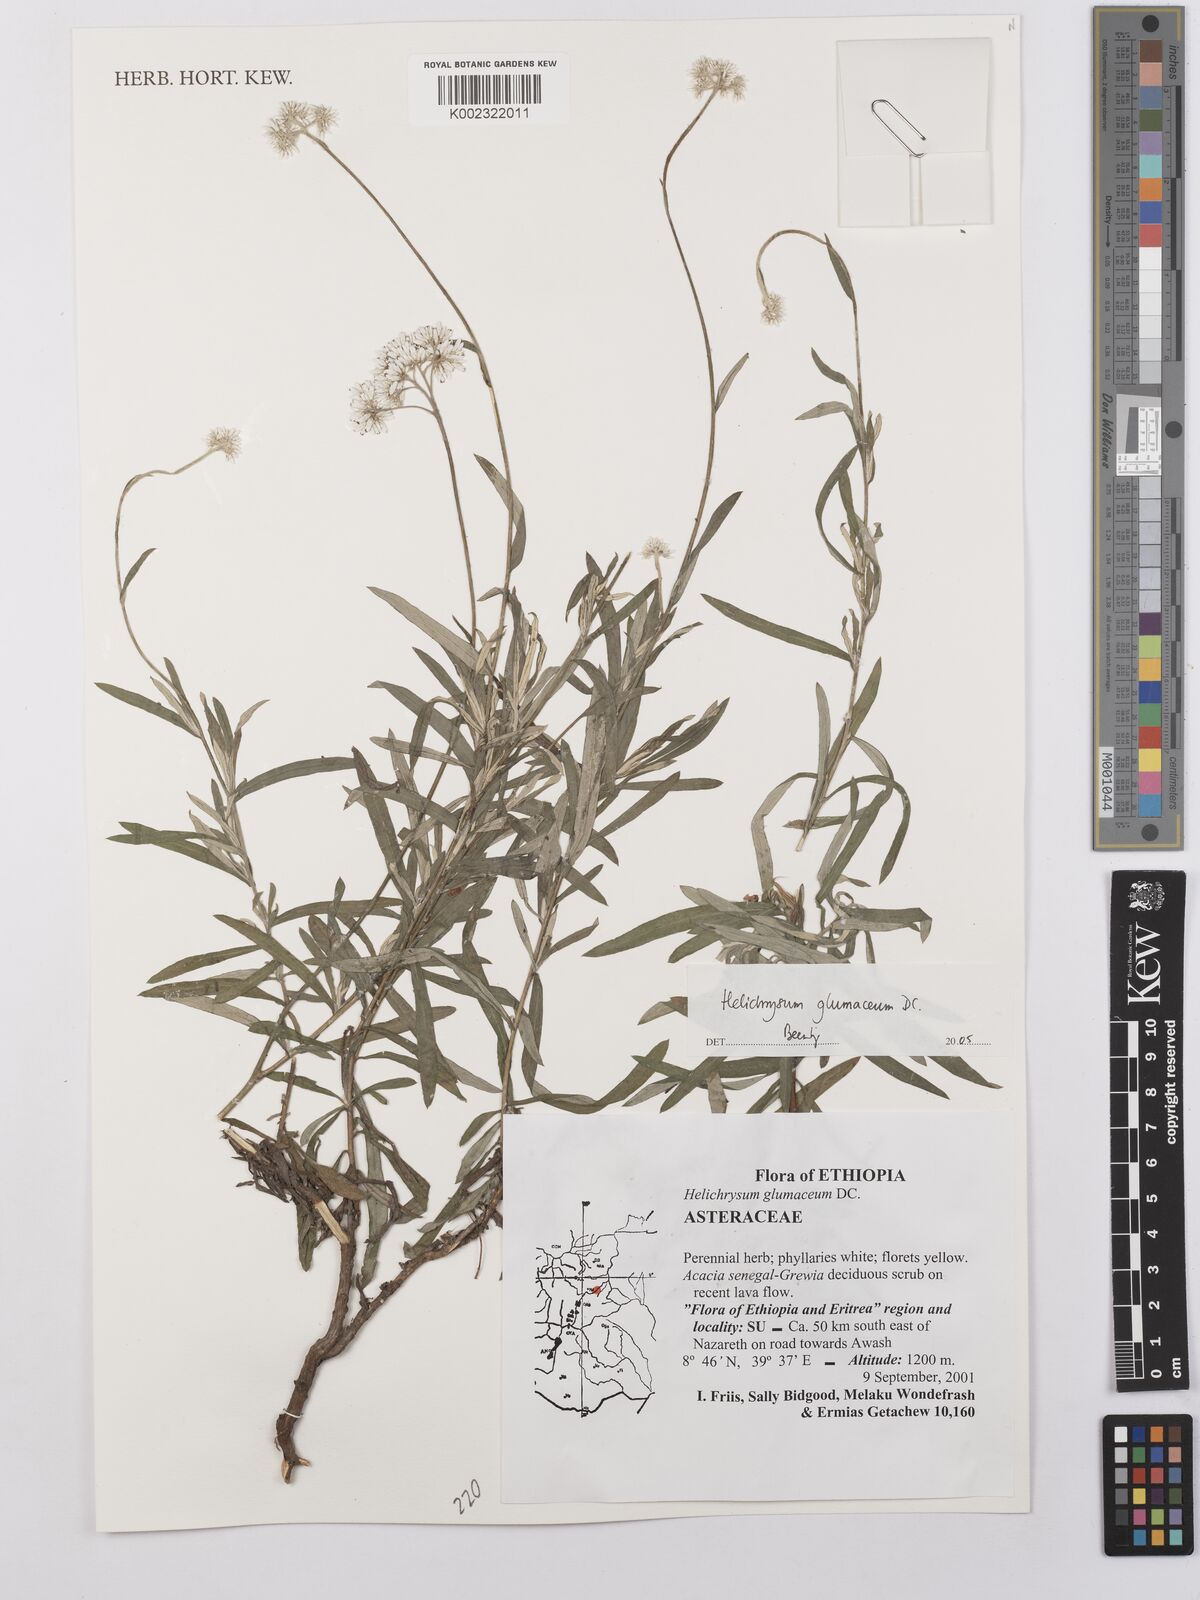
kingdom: Plantae
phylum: Tracheophyta
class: Magnoliopsida
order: Asterales
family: Asteraceae
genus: Helichrysum
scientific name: Helichrysum glumaceum
